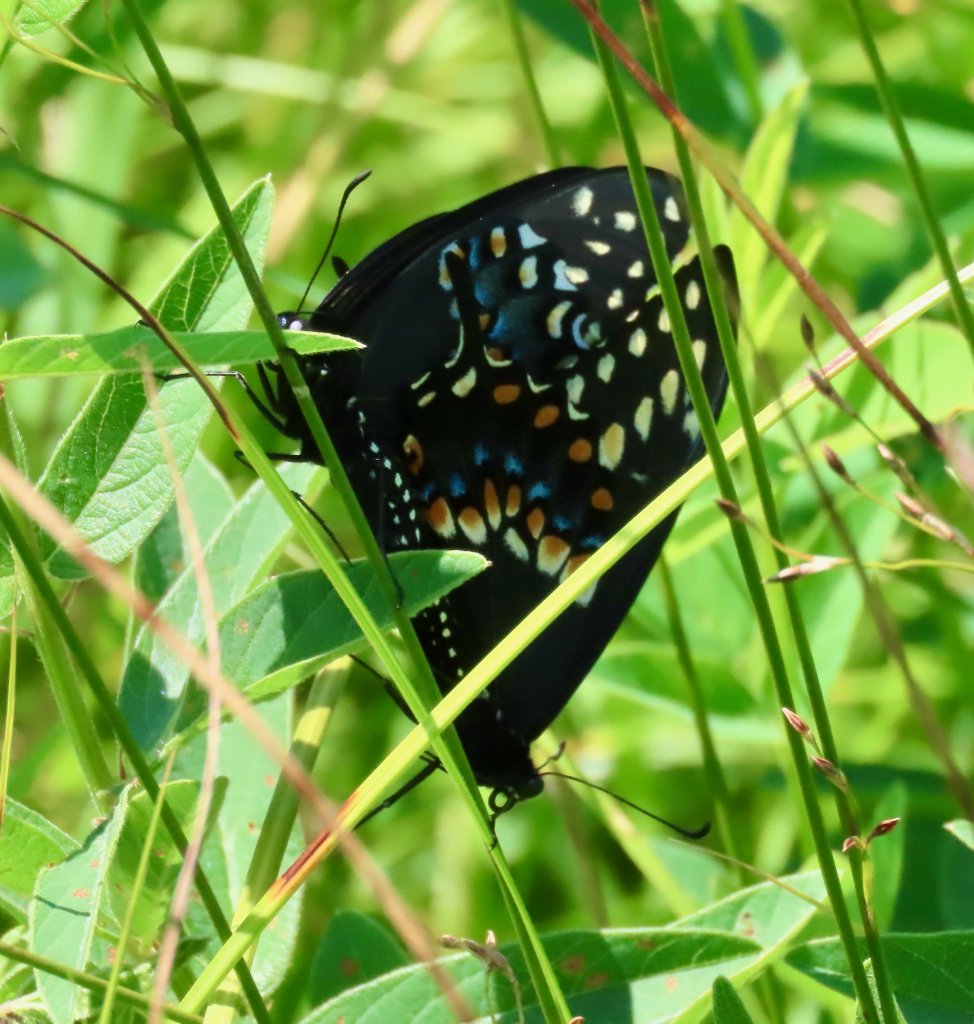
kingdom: Animalia
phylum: Arthropoda
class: Insecta
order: Lepidoptera
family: Papilionidae
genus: Papilio
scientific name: Papilio polyxenes
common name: Black Swallowtail
